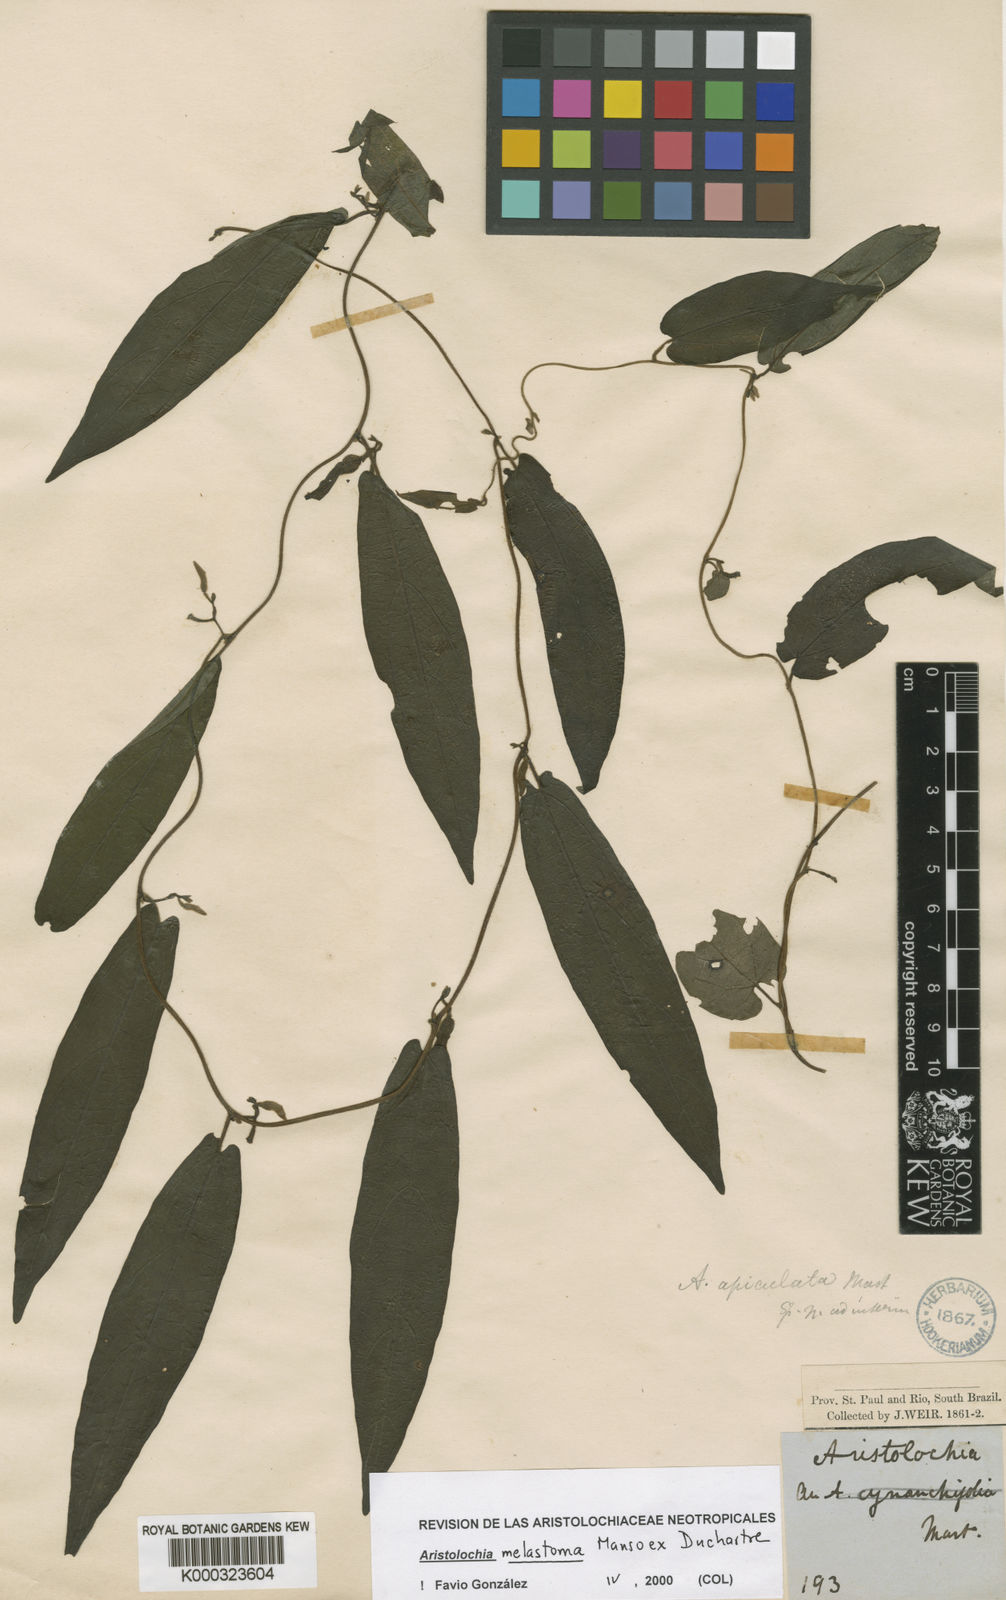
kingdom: Plantae
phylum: Tracheophyta
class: Magnoliopsida
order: Piperales
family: Aristolochiaceae
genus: Aristolochia
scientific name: Aristolochia
